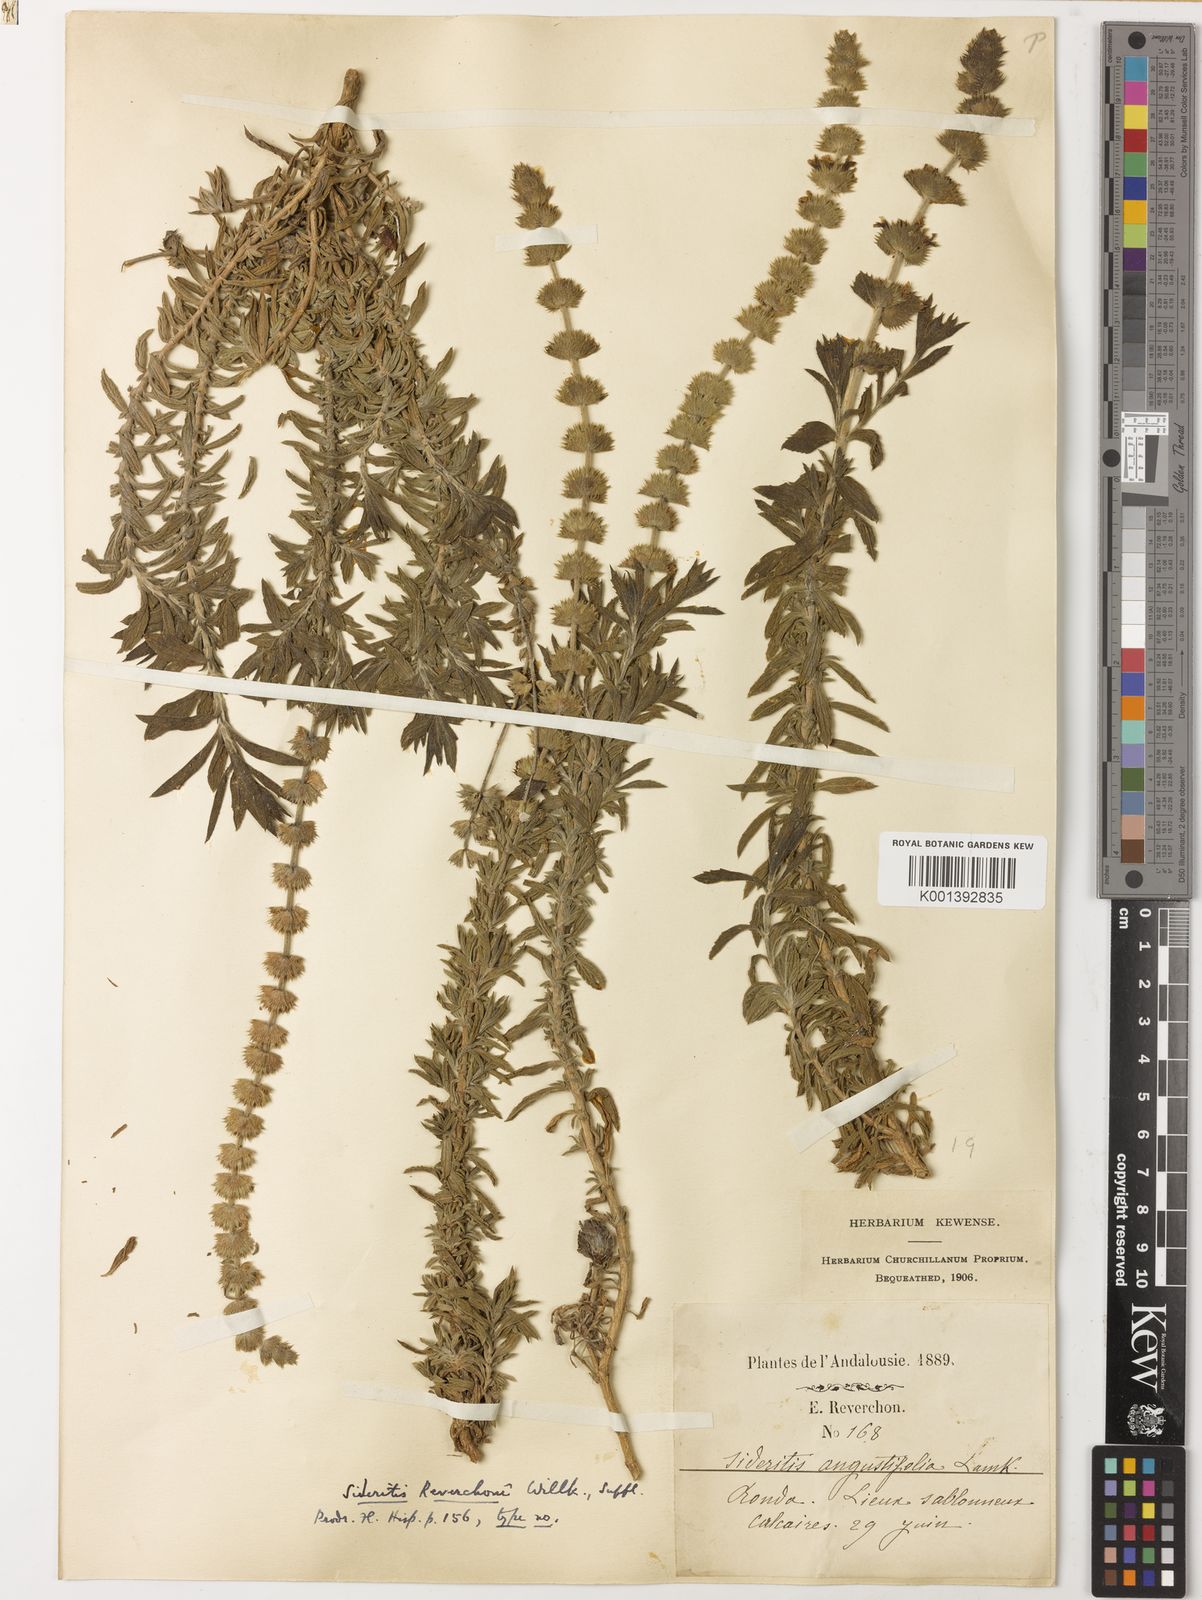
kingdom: Plantae
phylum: Tracheophyta
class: Magnoliopsida
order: Lamiales
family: Lamiaceae
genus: Sideritis
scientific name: Sideritis tragoriganum
